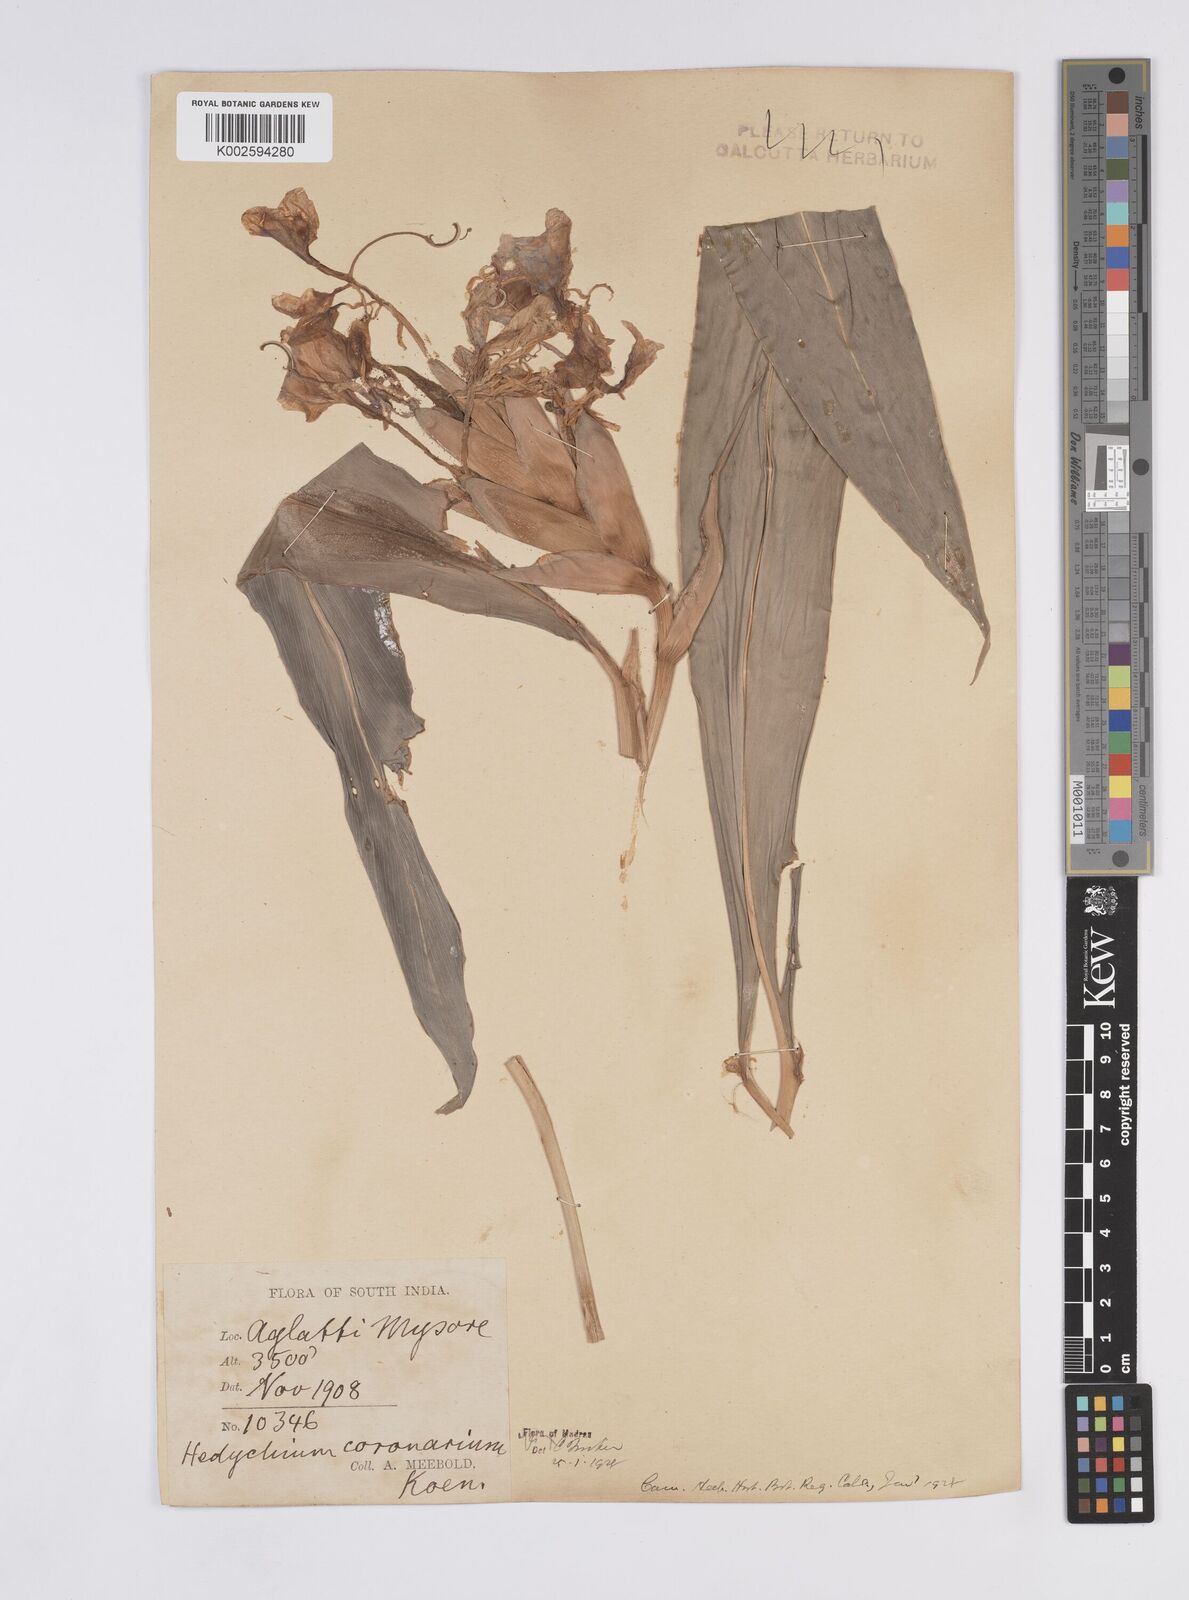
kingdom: Plantae
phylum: Tracheophyta
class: Liliopsida
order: Zingiberales
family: Zingiberaceae
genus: Hedychium
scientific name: Hedychium coronarium
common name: White garland-lily
